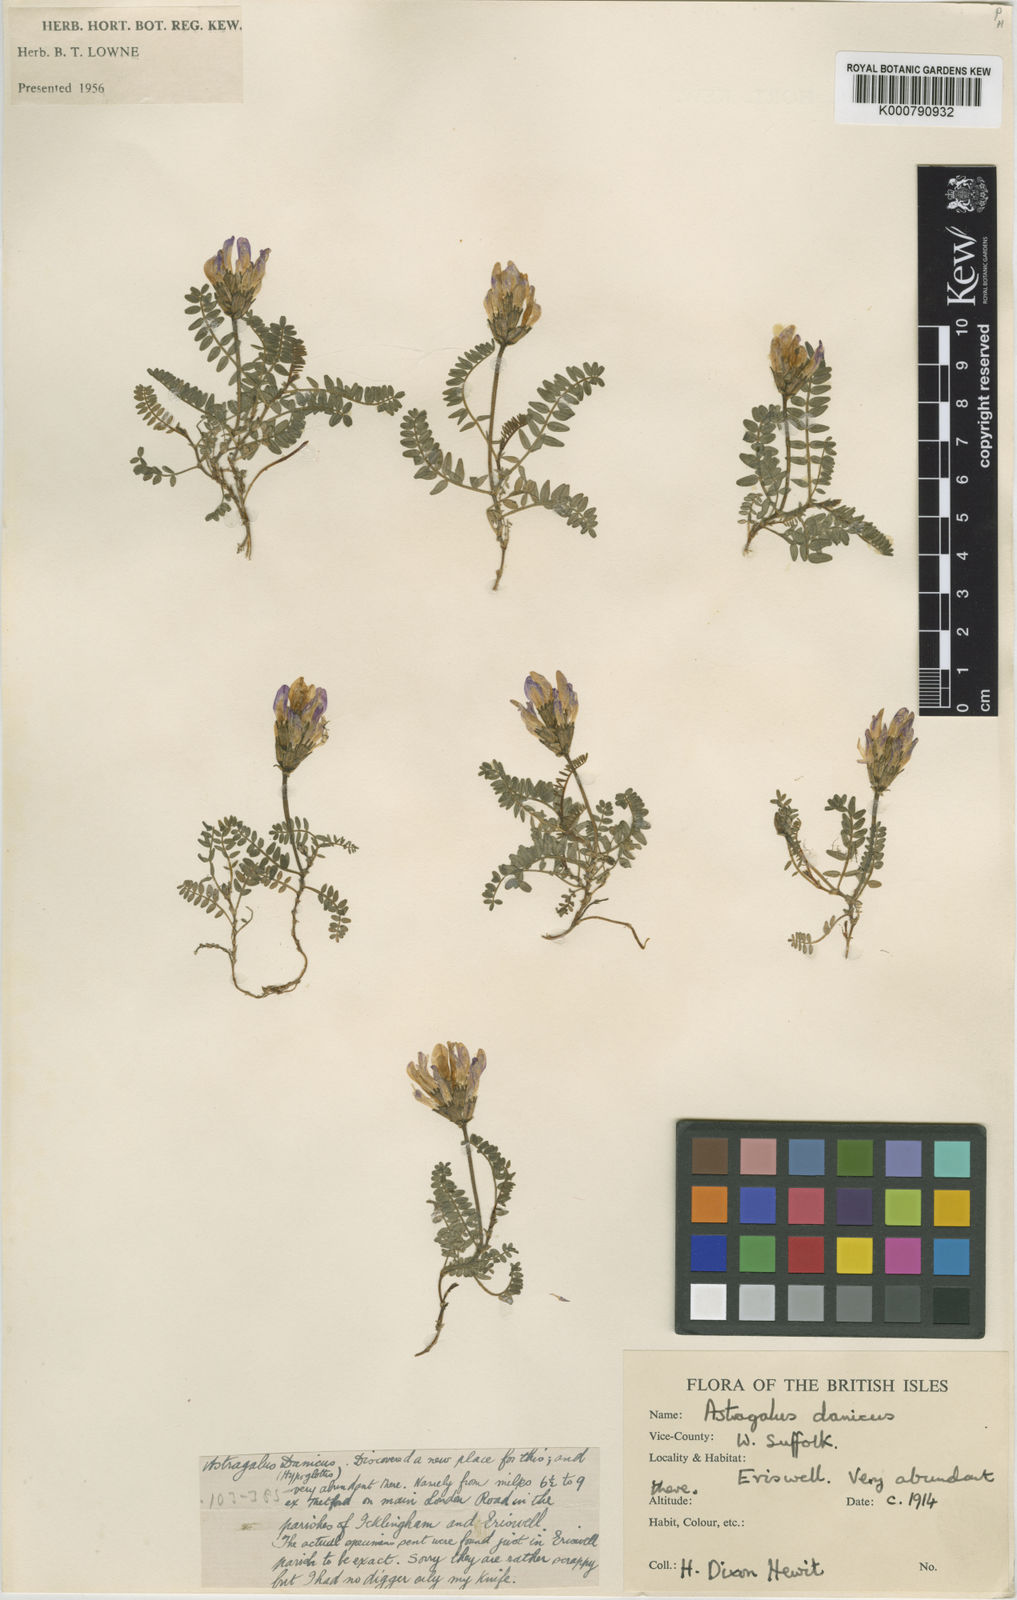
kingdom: Plantae
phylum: Tracheophyta
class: Magnoliopsida
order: Fabales
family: Fabaceae
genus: Astragalus
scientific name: Astragalus danicus
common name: Purple milk-vetch
